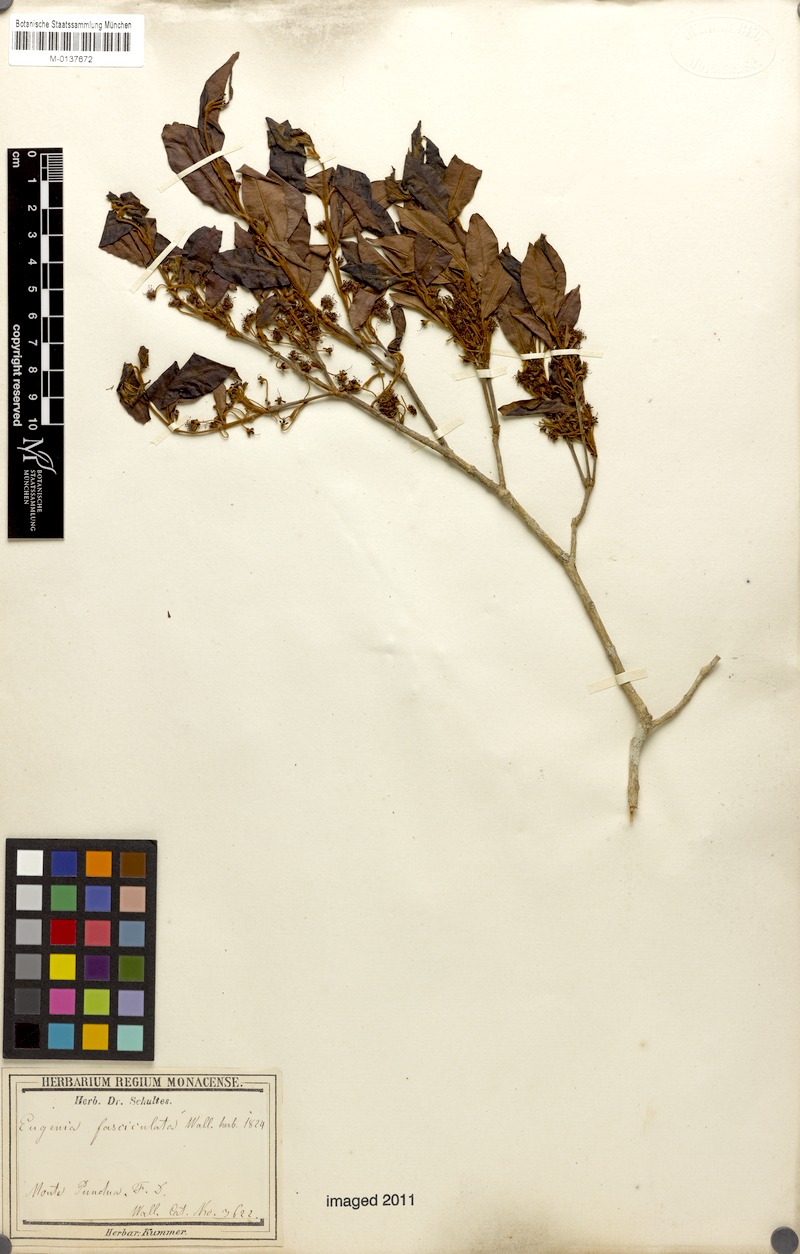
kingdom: Plantae
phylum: Tracheophyta
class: Magnoliopsida
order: Myrtales
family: Myrtaceae
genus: Eugenia
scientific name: Eugenia roxburghii
